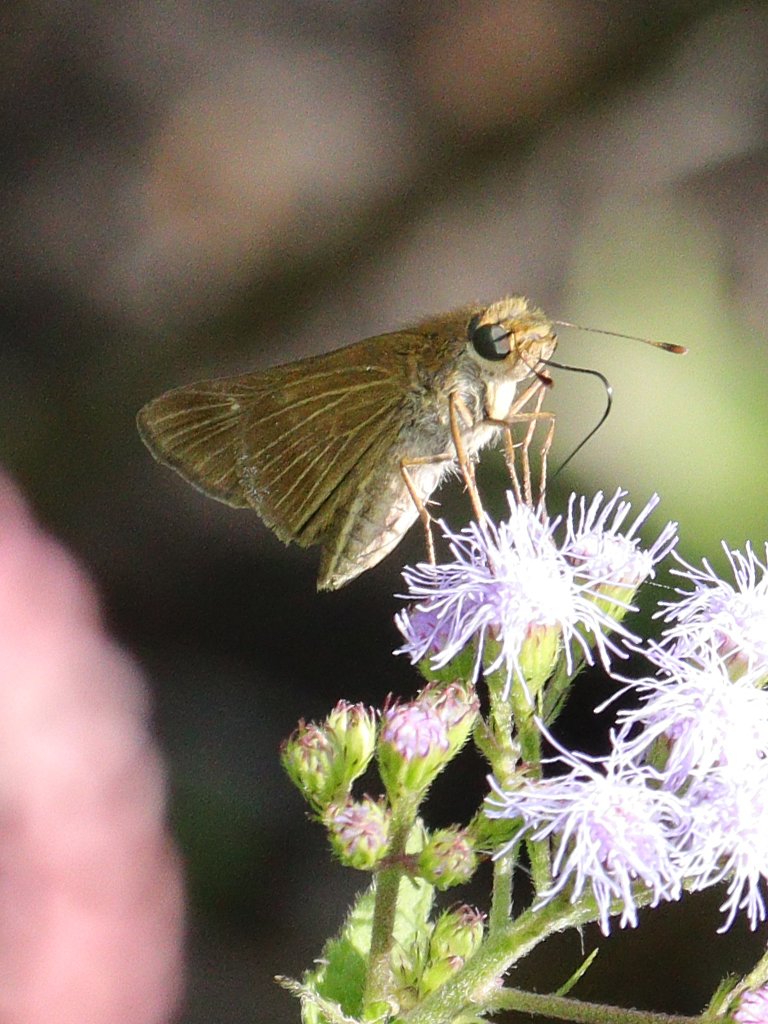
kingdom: Animalia
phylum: Arthropoda
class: Insecta
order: Lepidoptera
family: Hesperiidae
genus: Panoquina
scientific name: Panoquina ocola
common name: Ocola Skipper
